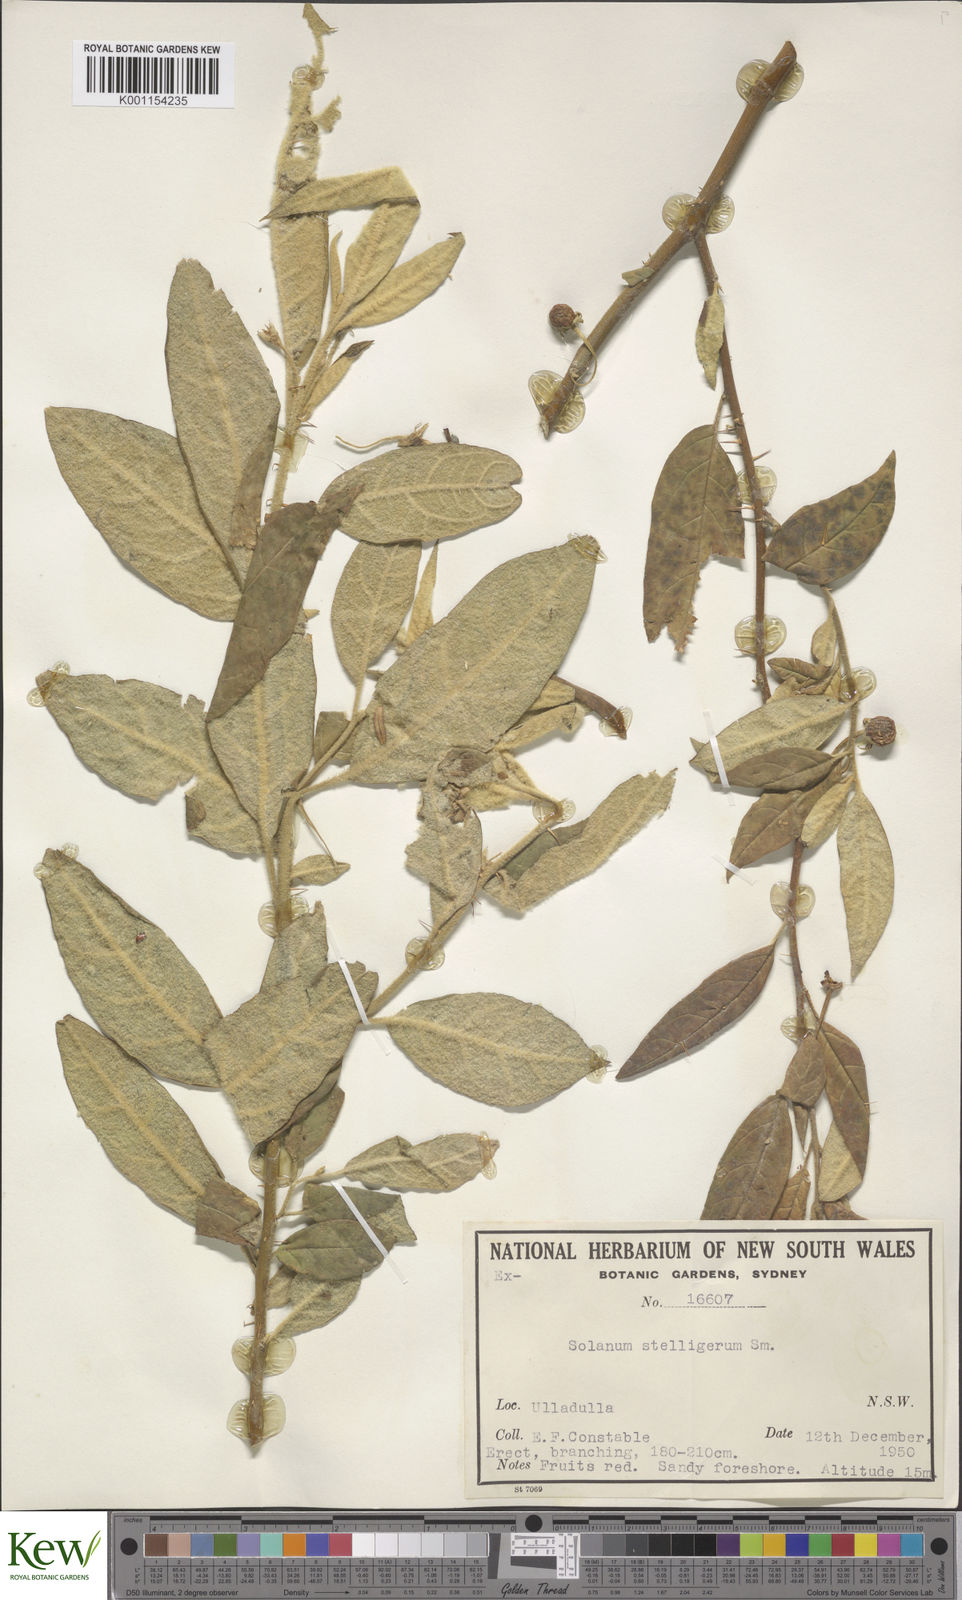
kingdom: Plantae
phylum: Tracheophyta
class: Magnoliopsida
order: Solanales
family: Solanaceae
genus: Solanum
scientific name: Solanum stelligerum
